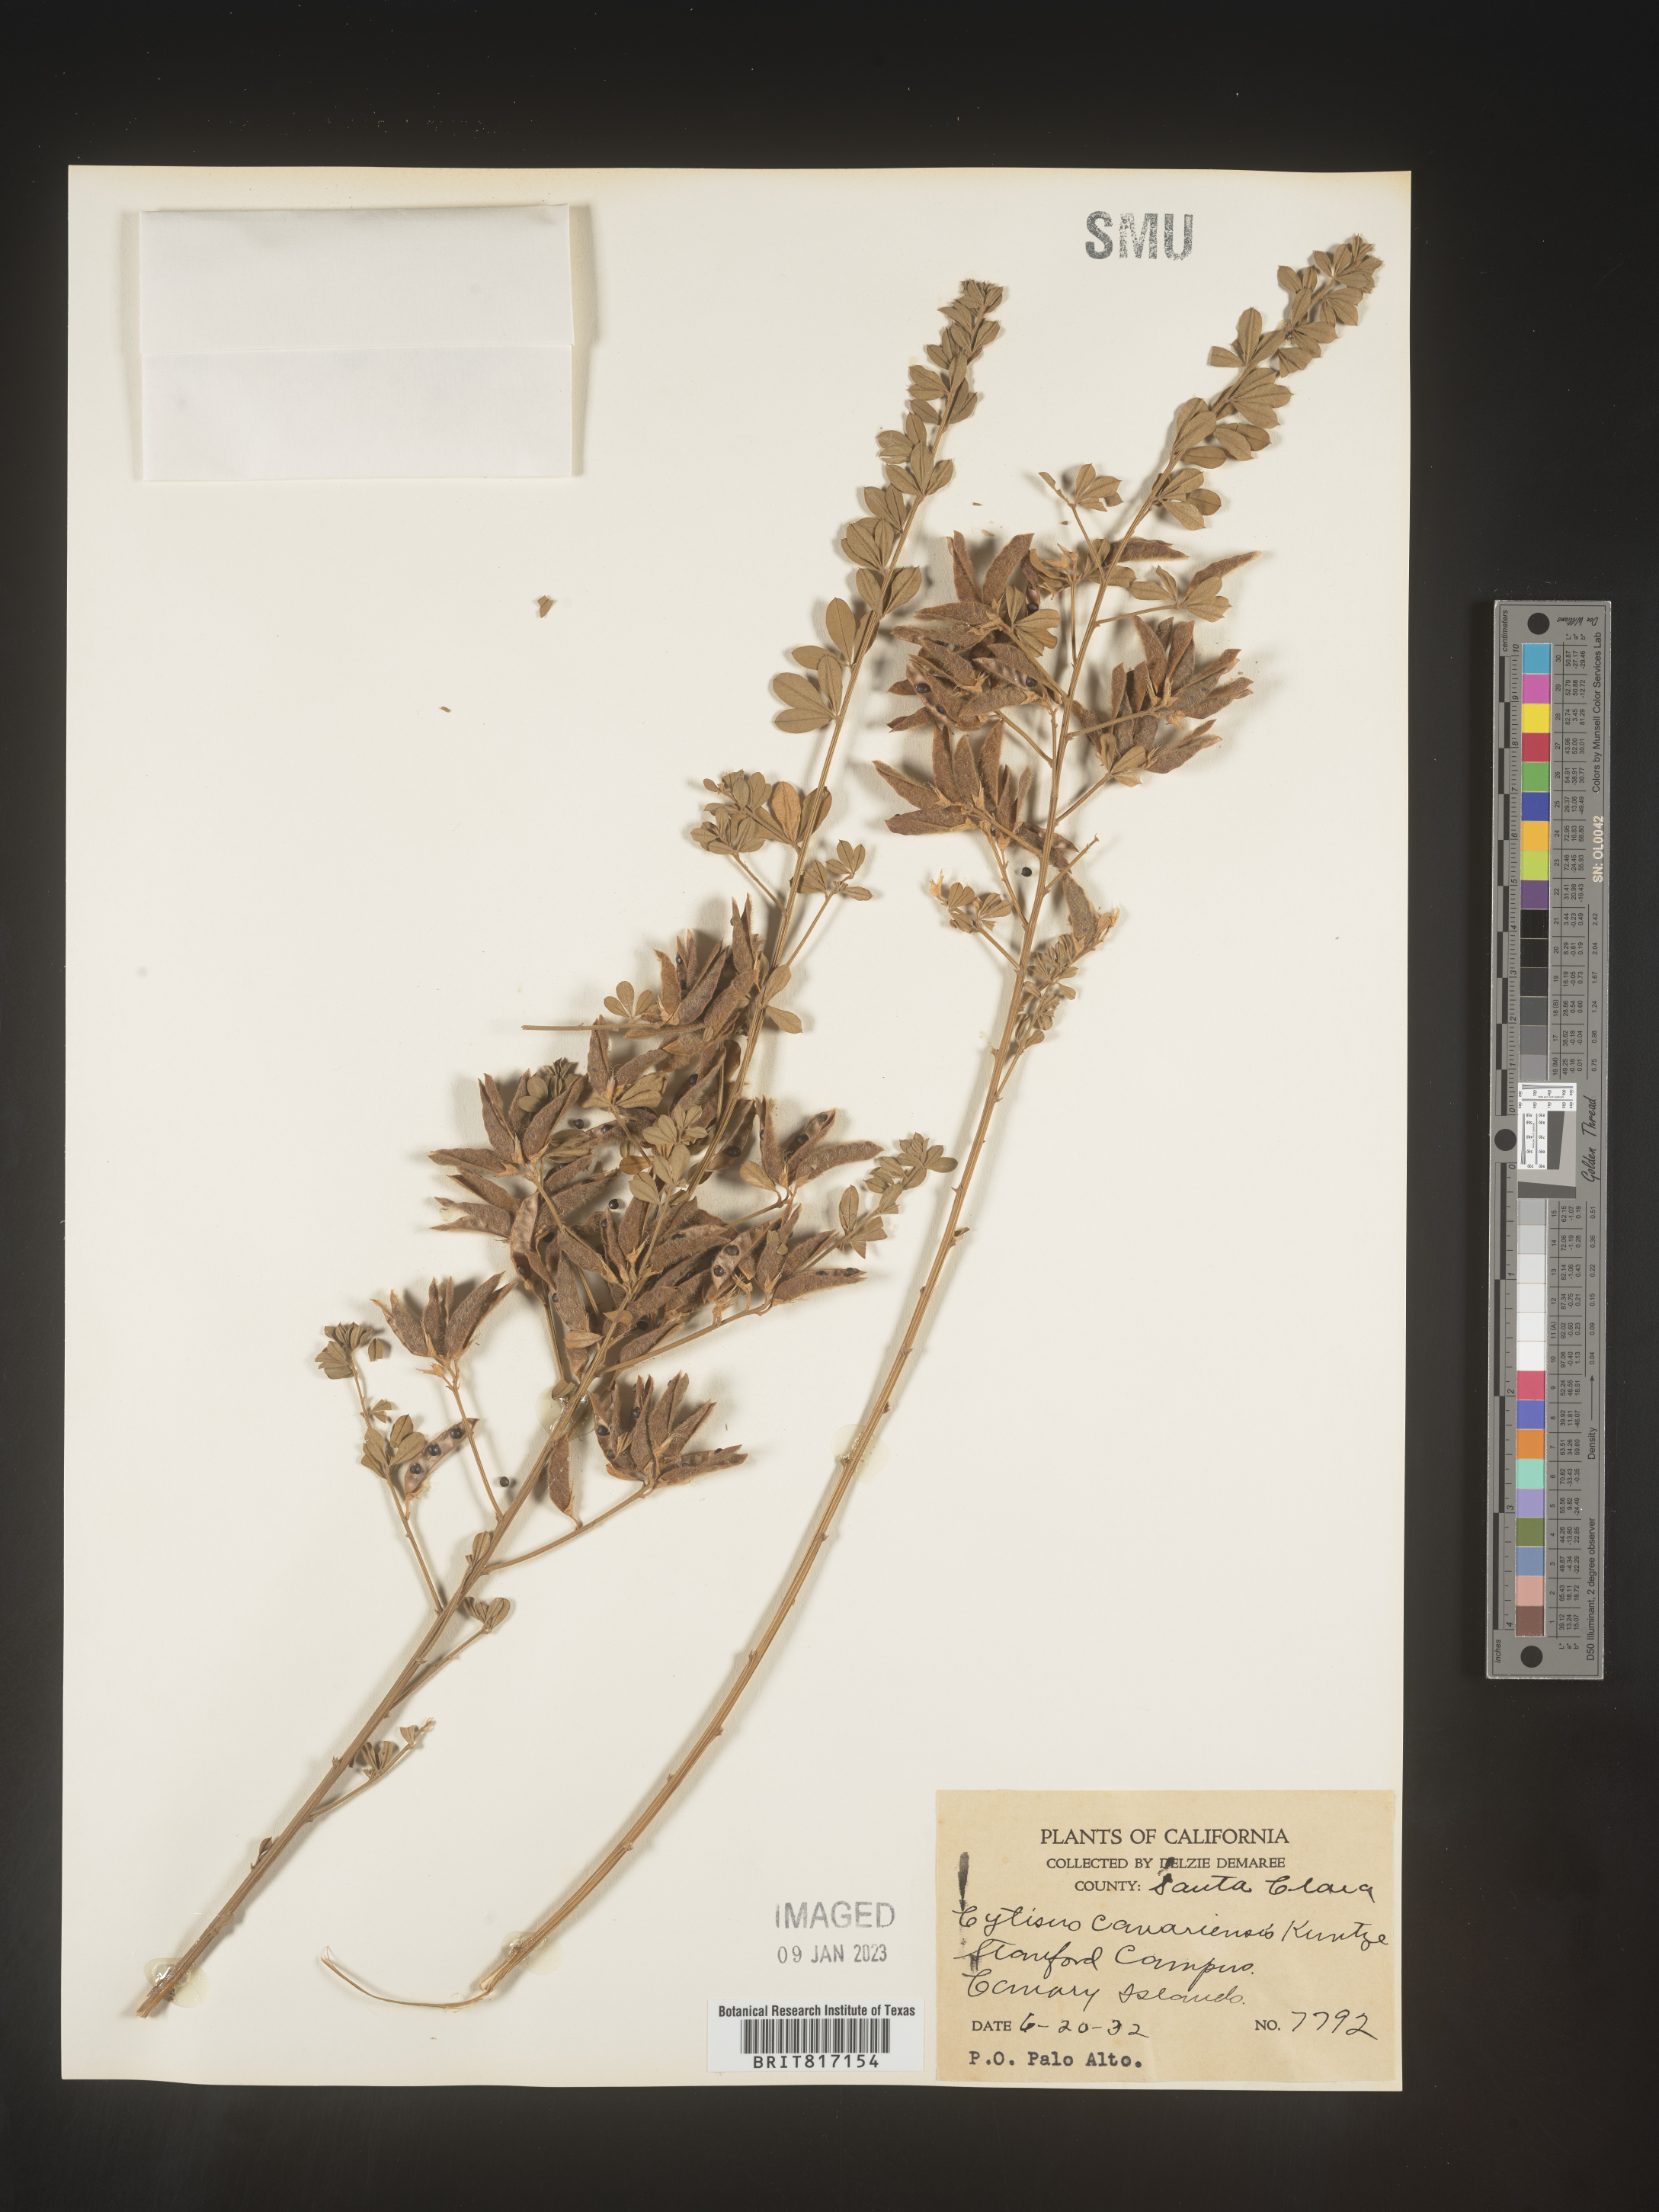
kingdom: Plantae
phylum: Tracheophyta
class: Magnoliopsida
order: Fabales
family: Fabaceae
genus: Cytisus
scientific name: Cytisus
